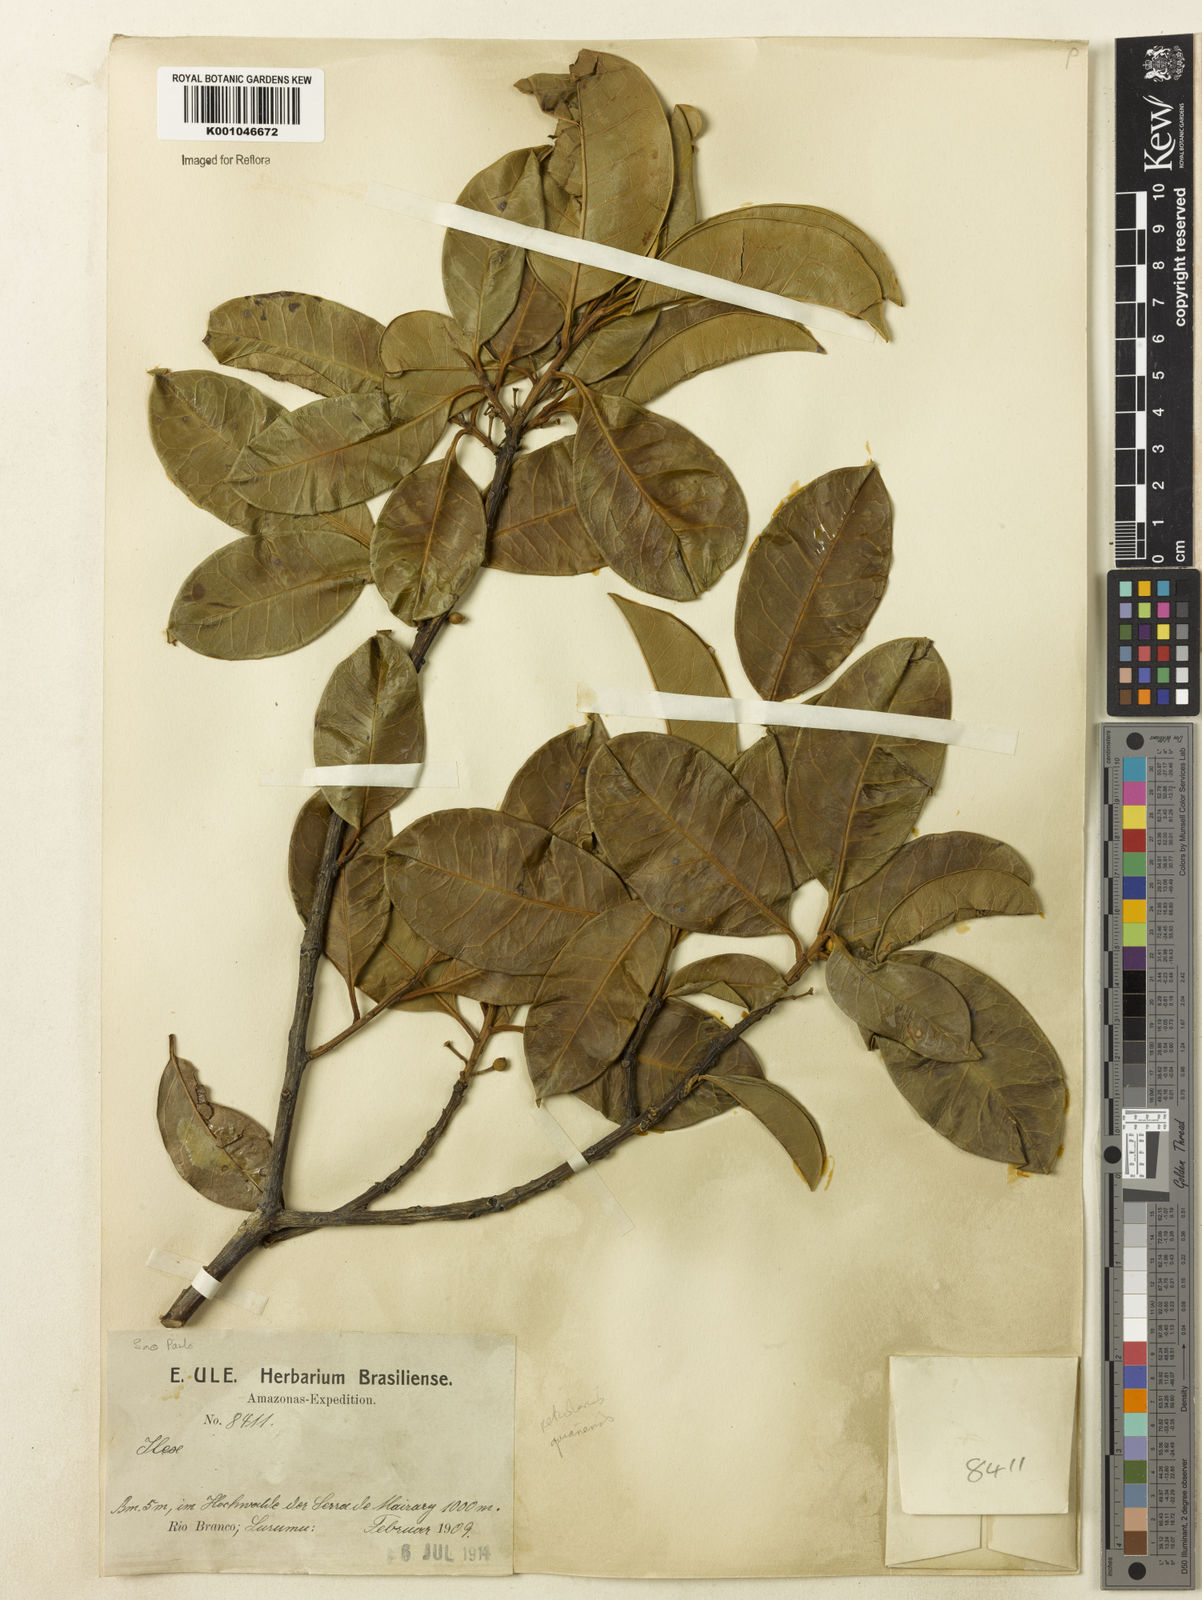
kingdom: Plantae
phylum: Tracheophyta
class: Magnoliopsida
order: Aquifoliales
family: Aquifoliaceae
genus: Ilex
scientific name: Ilex lundii
